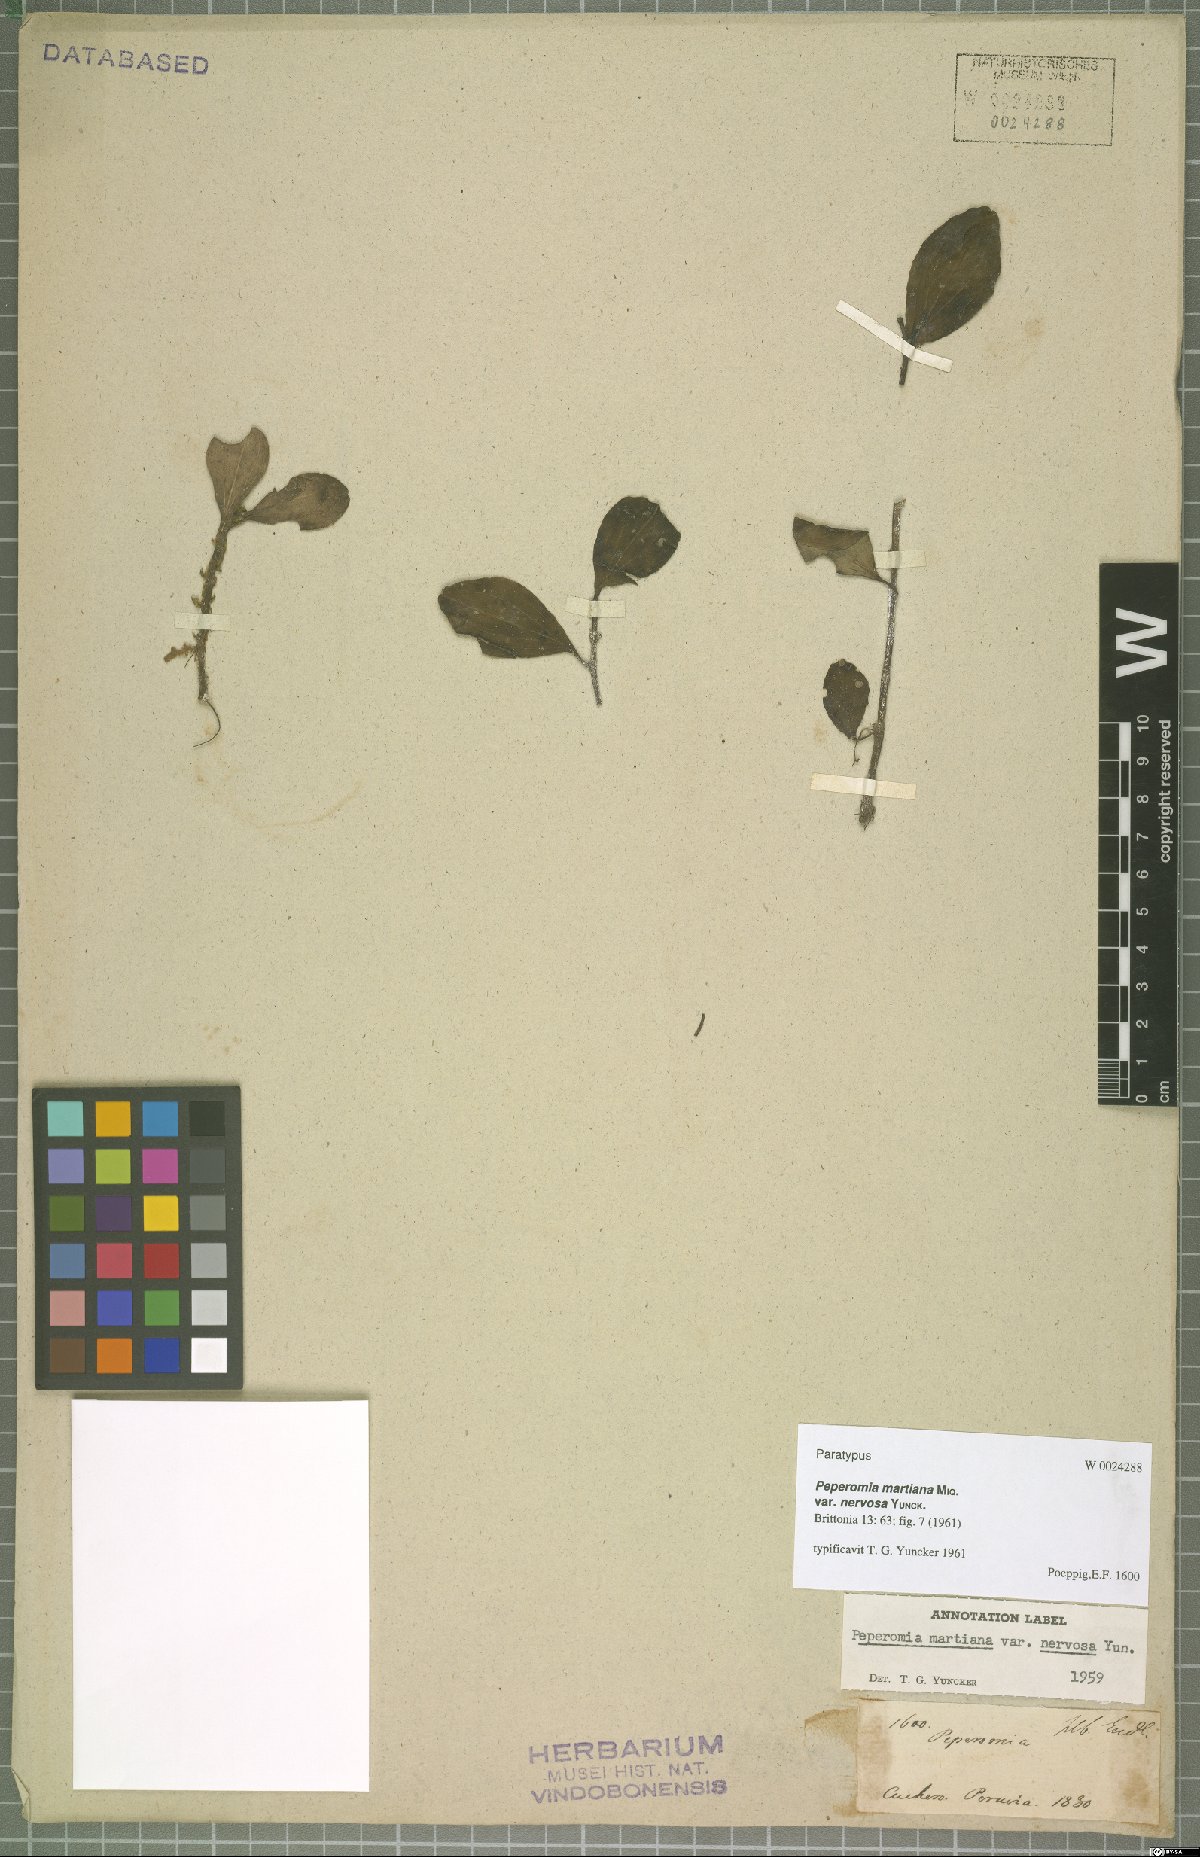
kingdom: Plantae
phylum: Tracheophyta
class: Magnoliopsida
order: Piperales
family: Piperaceae
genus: Peperomia
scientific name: Peperomia martiana
